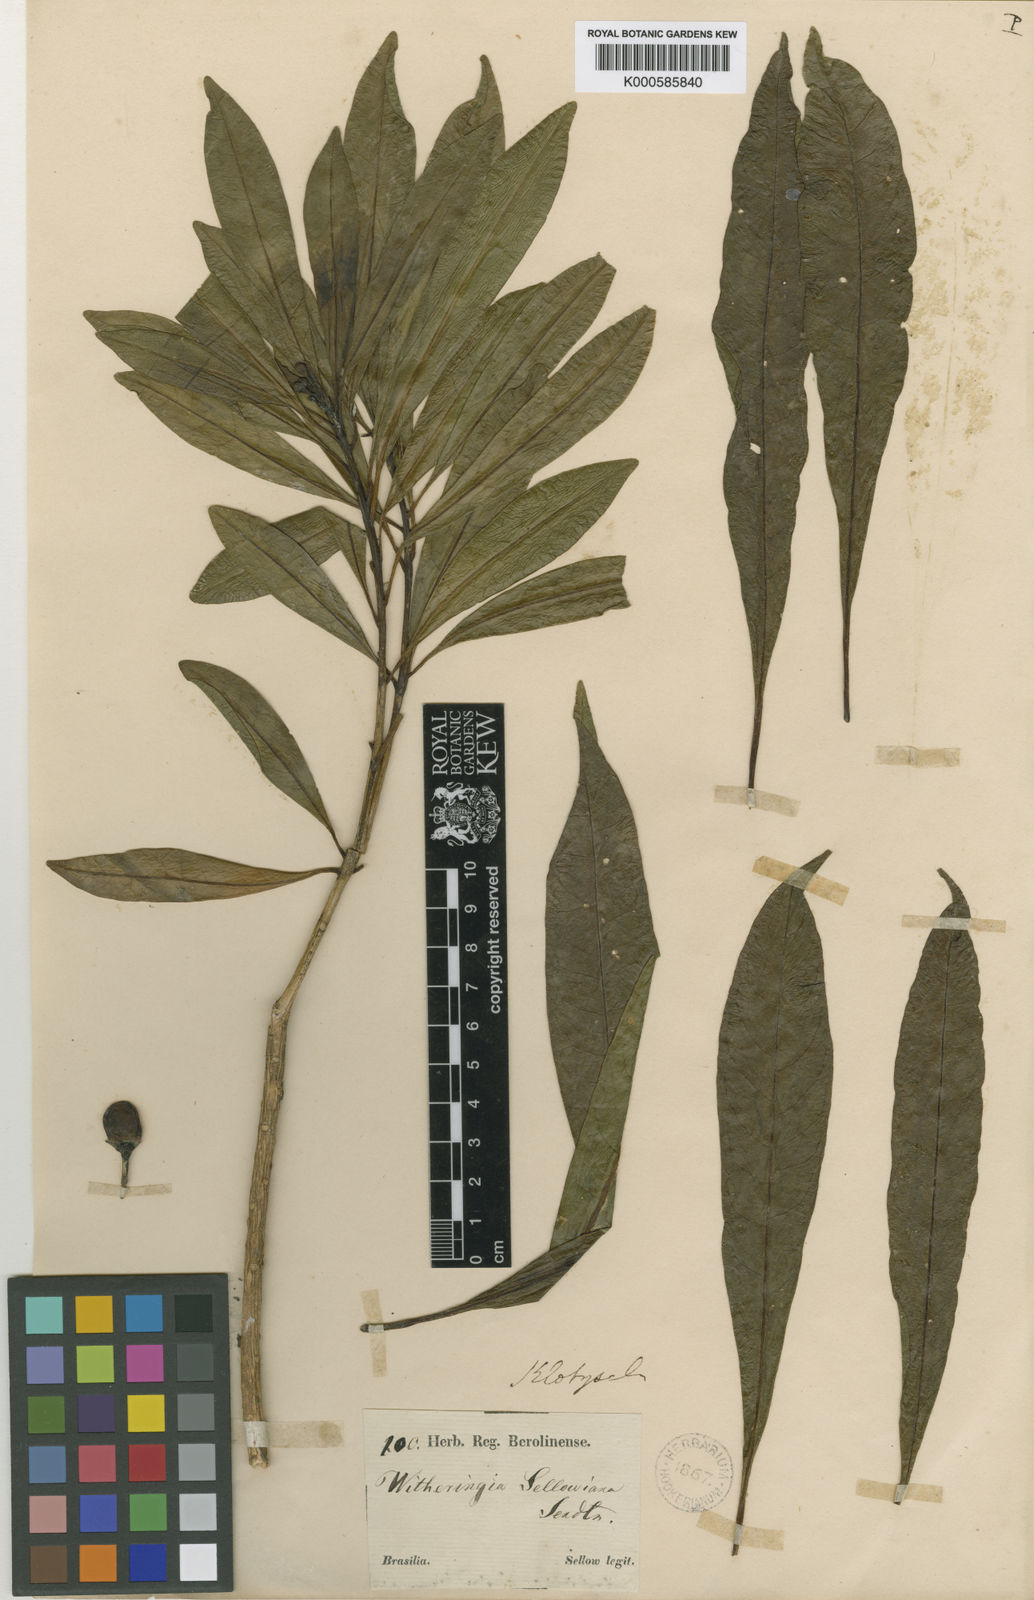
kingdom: Plantae
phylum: Tracheophyta
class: Magnoliopsida
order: Solanales
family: Solanaceae
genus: Athenaea
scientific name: Athenaea
